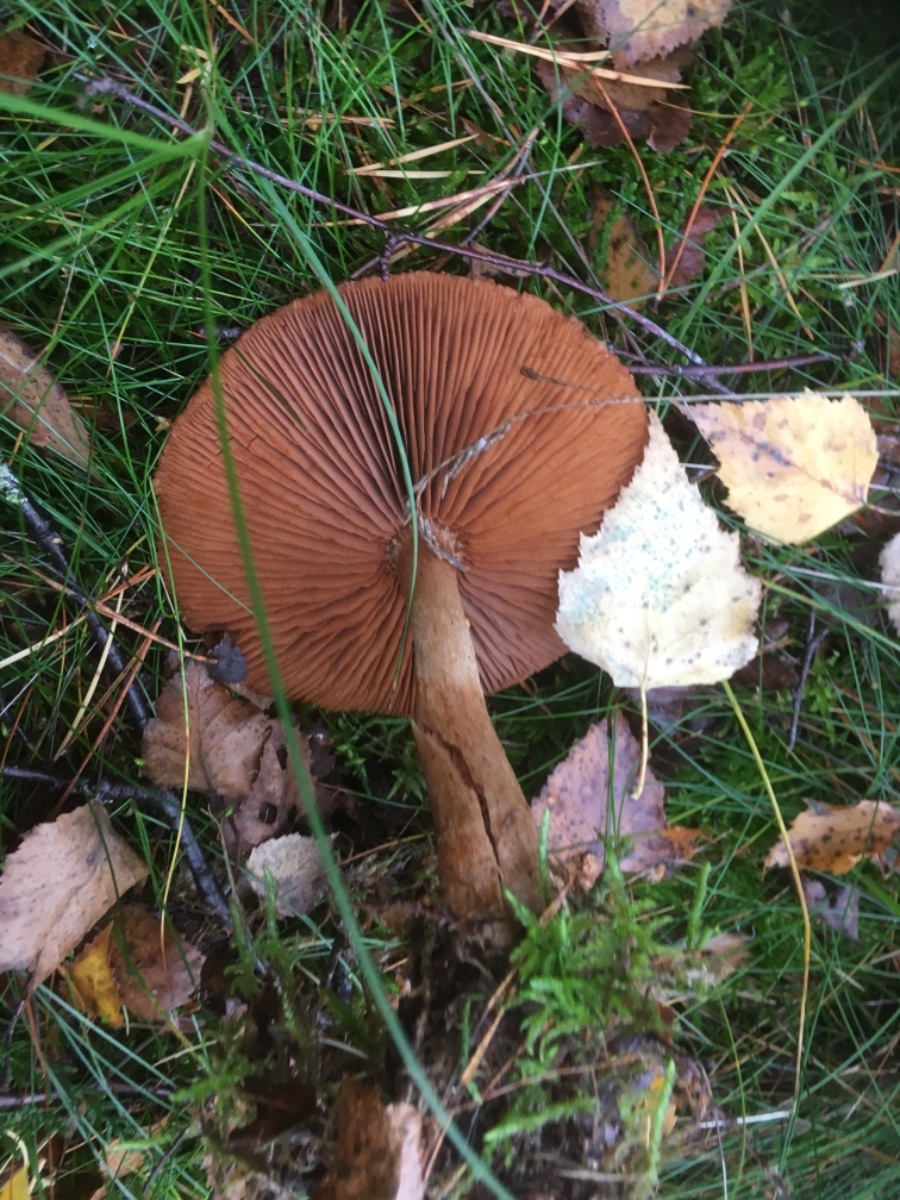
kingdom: Fungi
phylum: Basidiomycota
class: Agaricomycetes
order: Agaricales
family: Cortinariaceae
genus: Cortinarius
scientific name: Cortinarius
